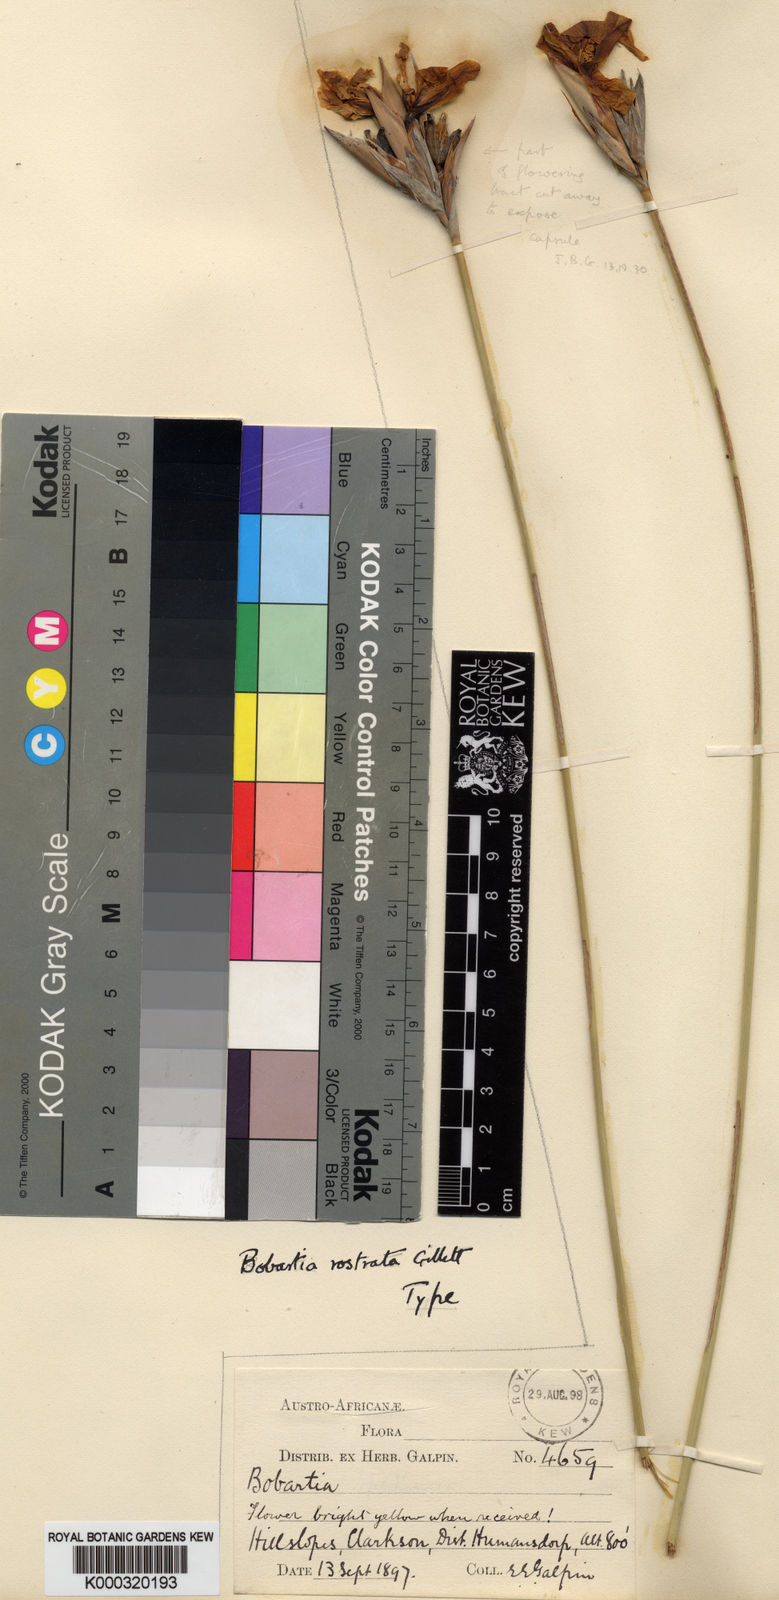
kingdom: Plantae
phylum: Tracheophyta
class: Liliopsida
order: Asparagales
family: Iridaceae
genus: Bobartia
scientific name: Bobartia
